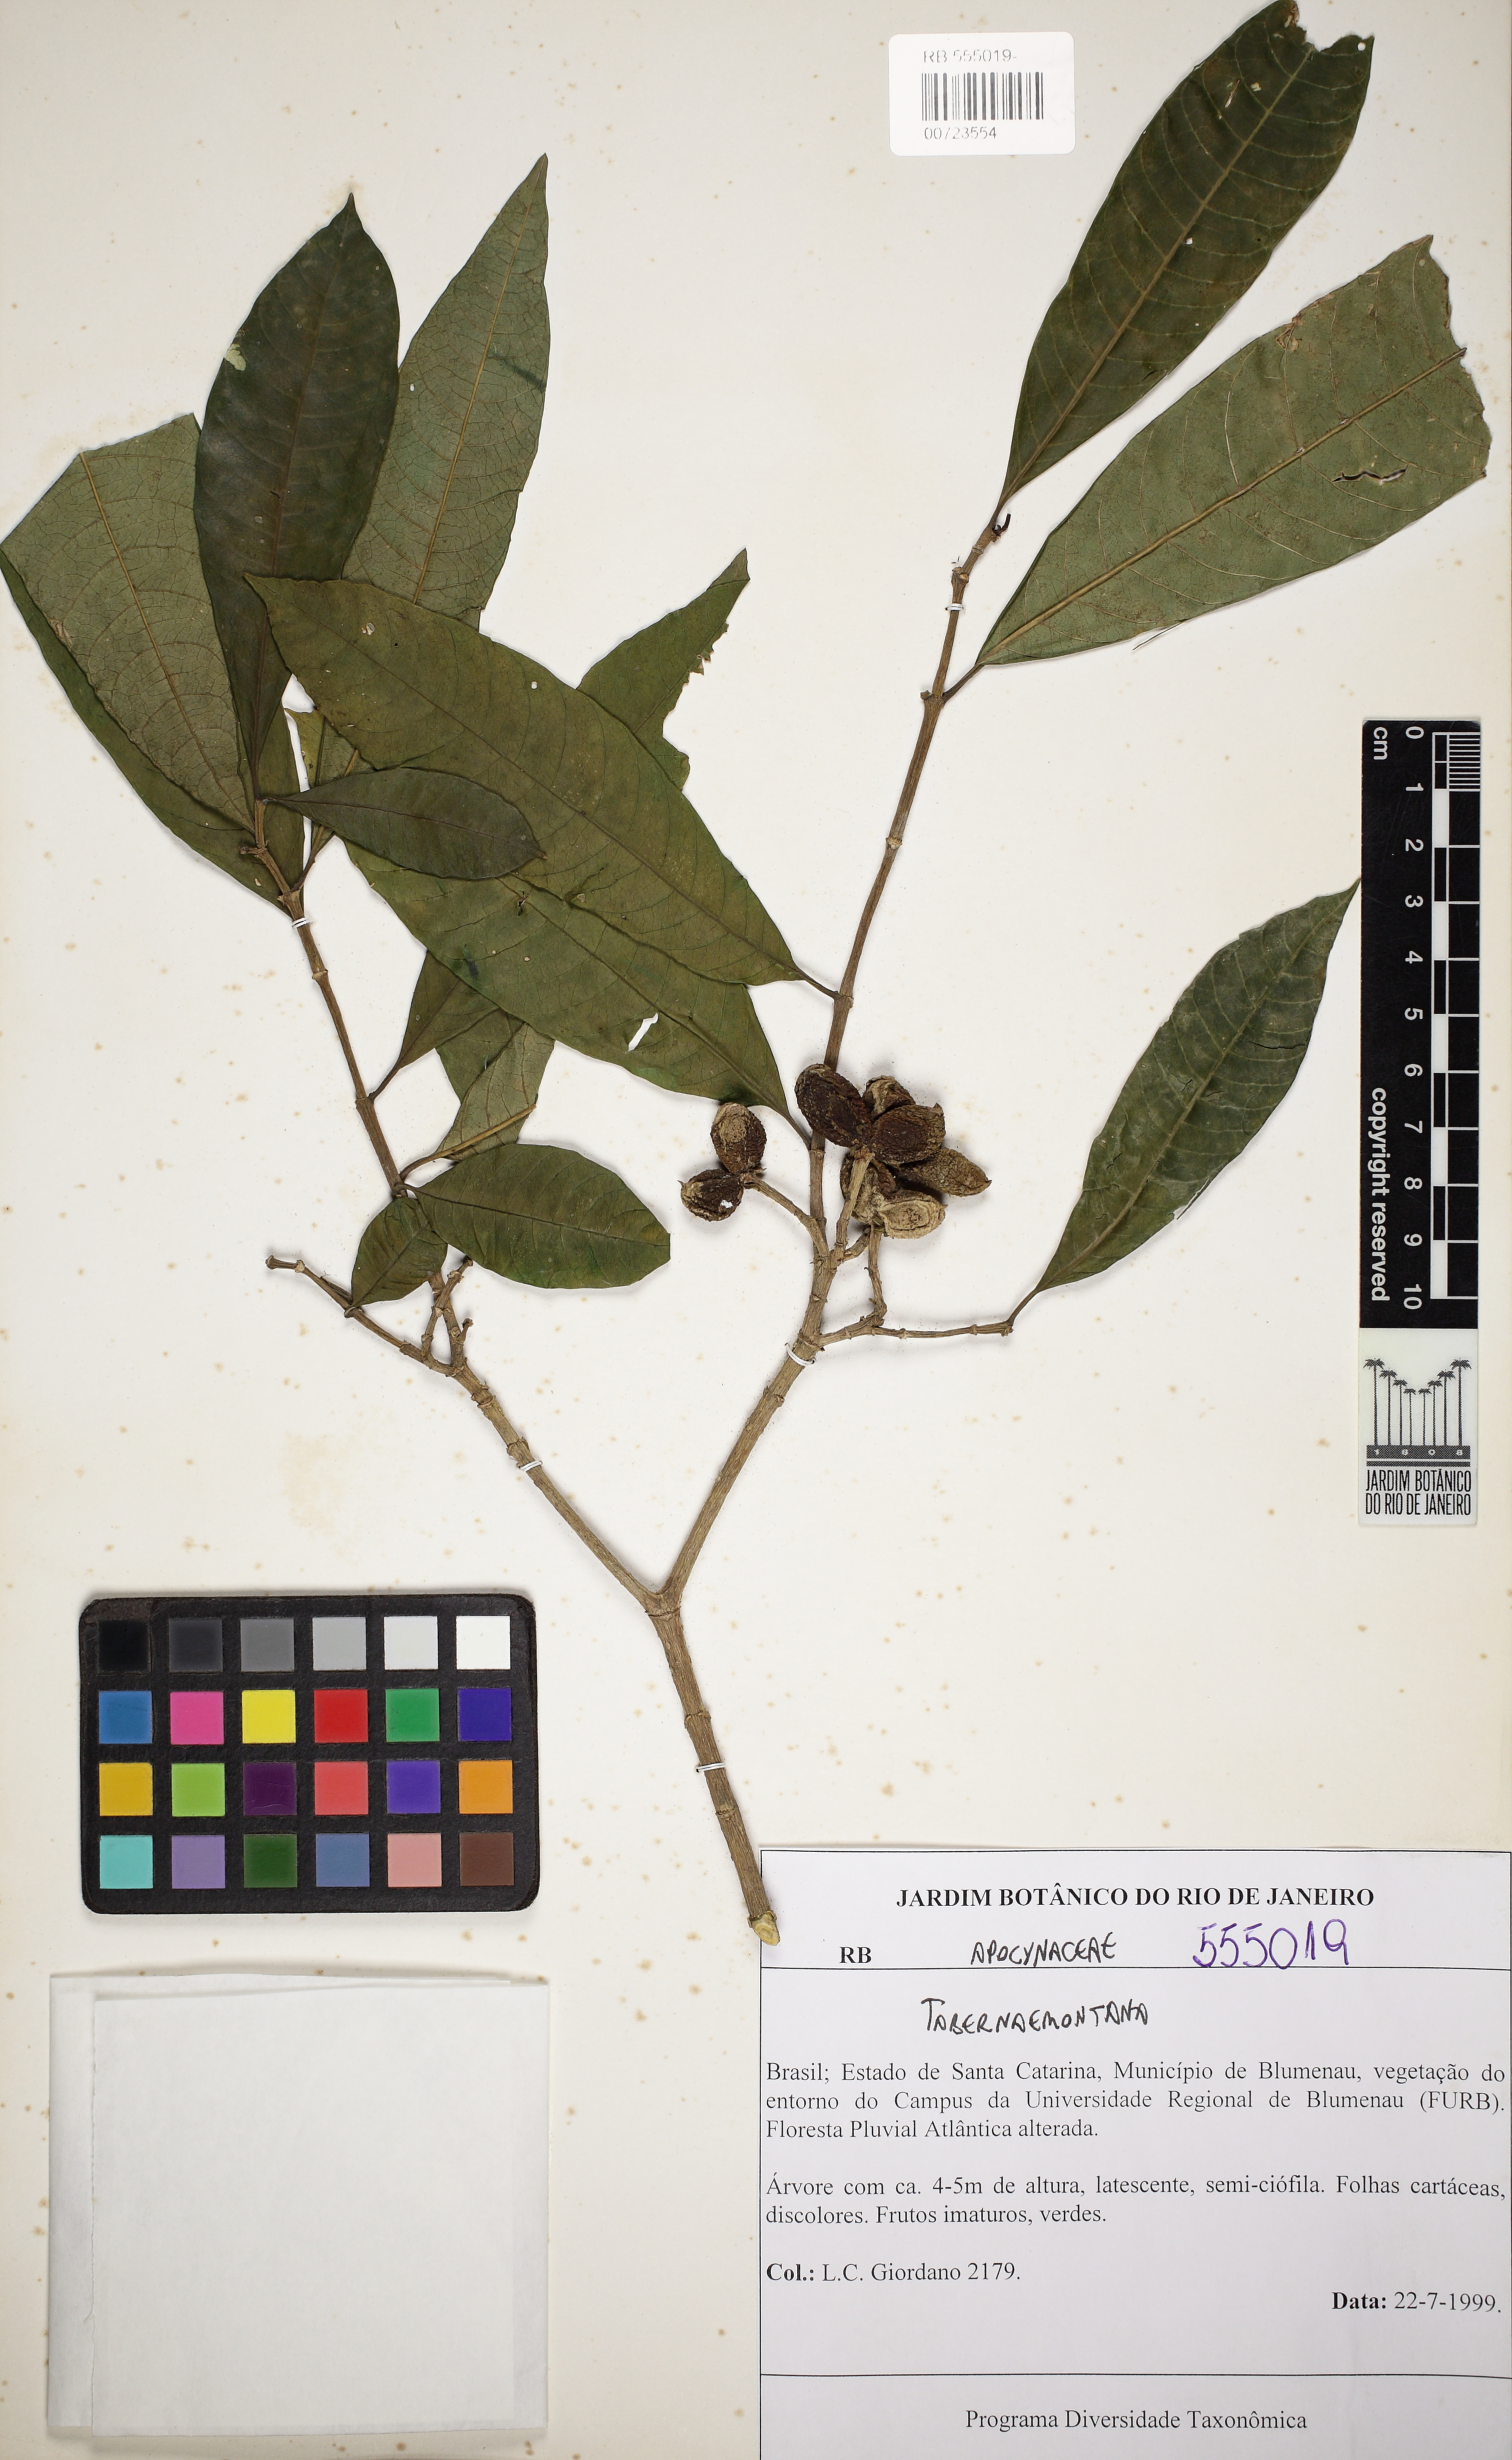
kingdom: Plantae
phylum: Tracheophyta
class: Magnoliopsida
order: Gentianales
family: Apocynaceae
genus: Tabernaemontana
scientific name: Tabernaemontana
